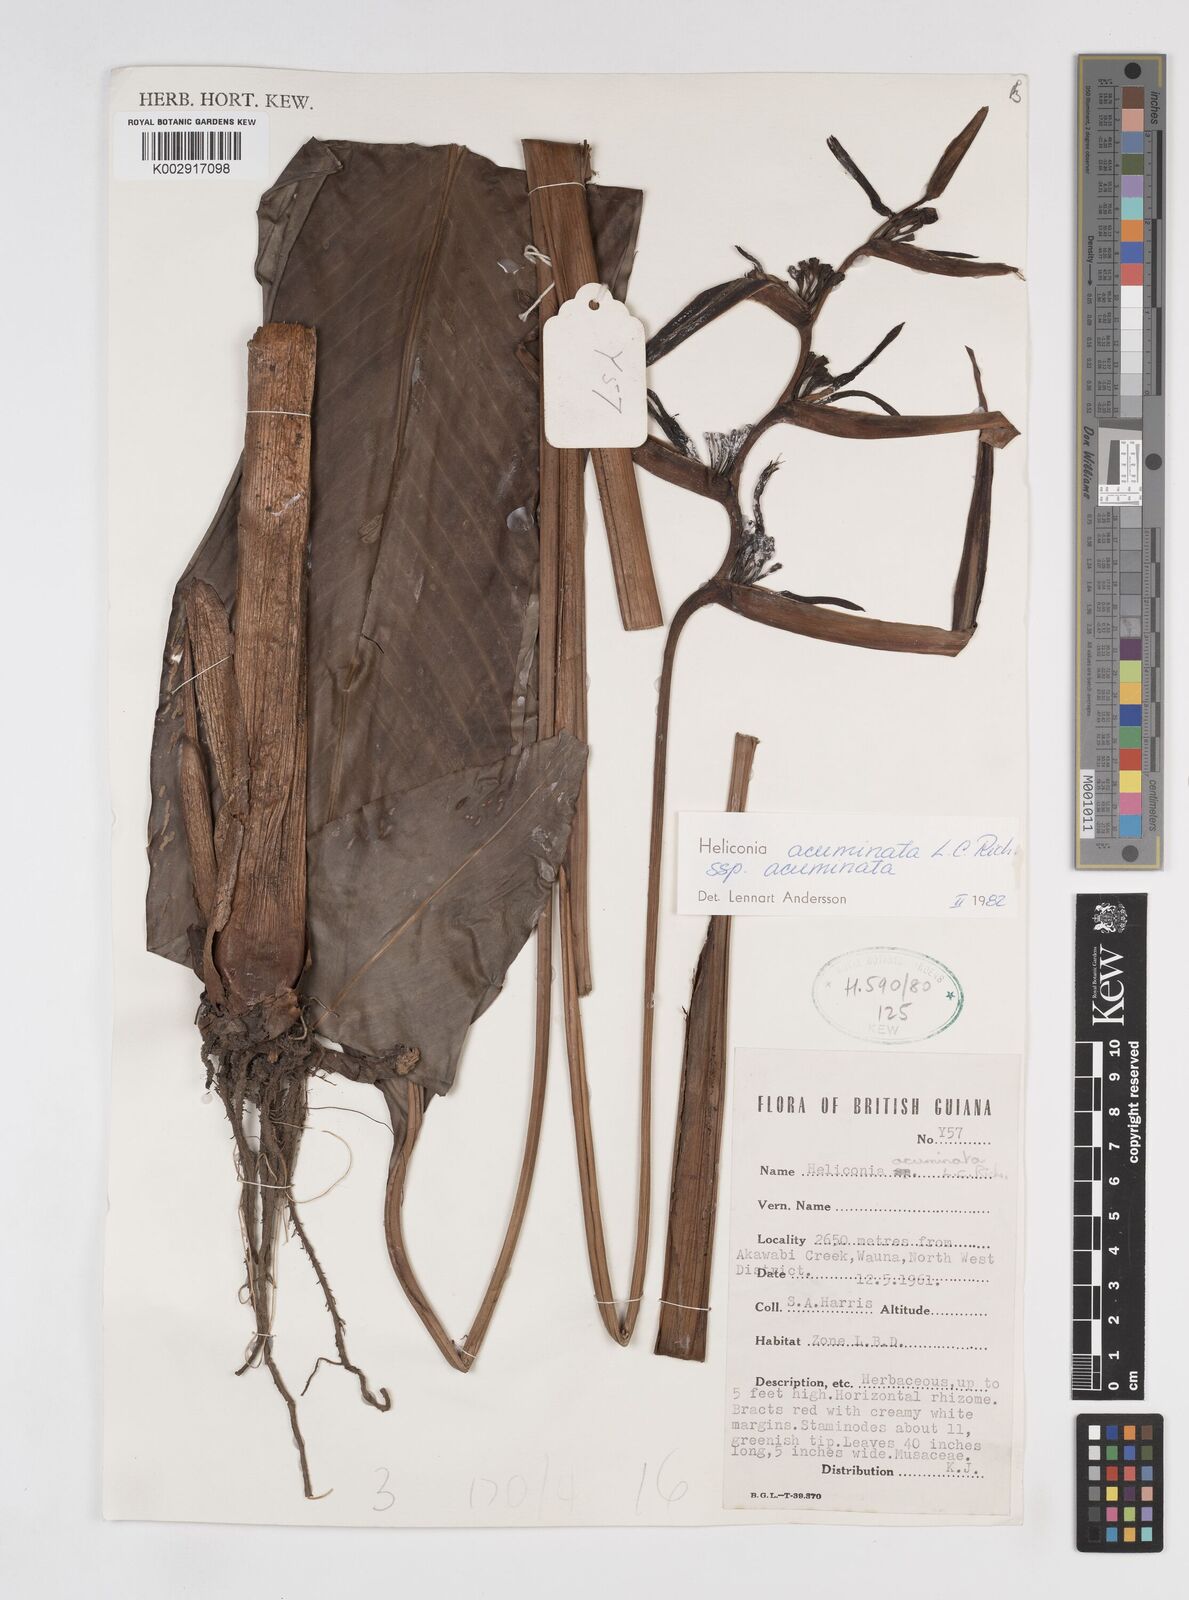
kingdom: Plantae
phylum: Tracheophyta
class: Liliopsida
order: Zingiberales
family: Heliconiaceae
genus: Heliconia
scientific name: Heliconia acuminata
